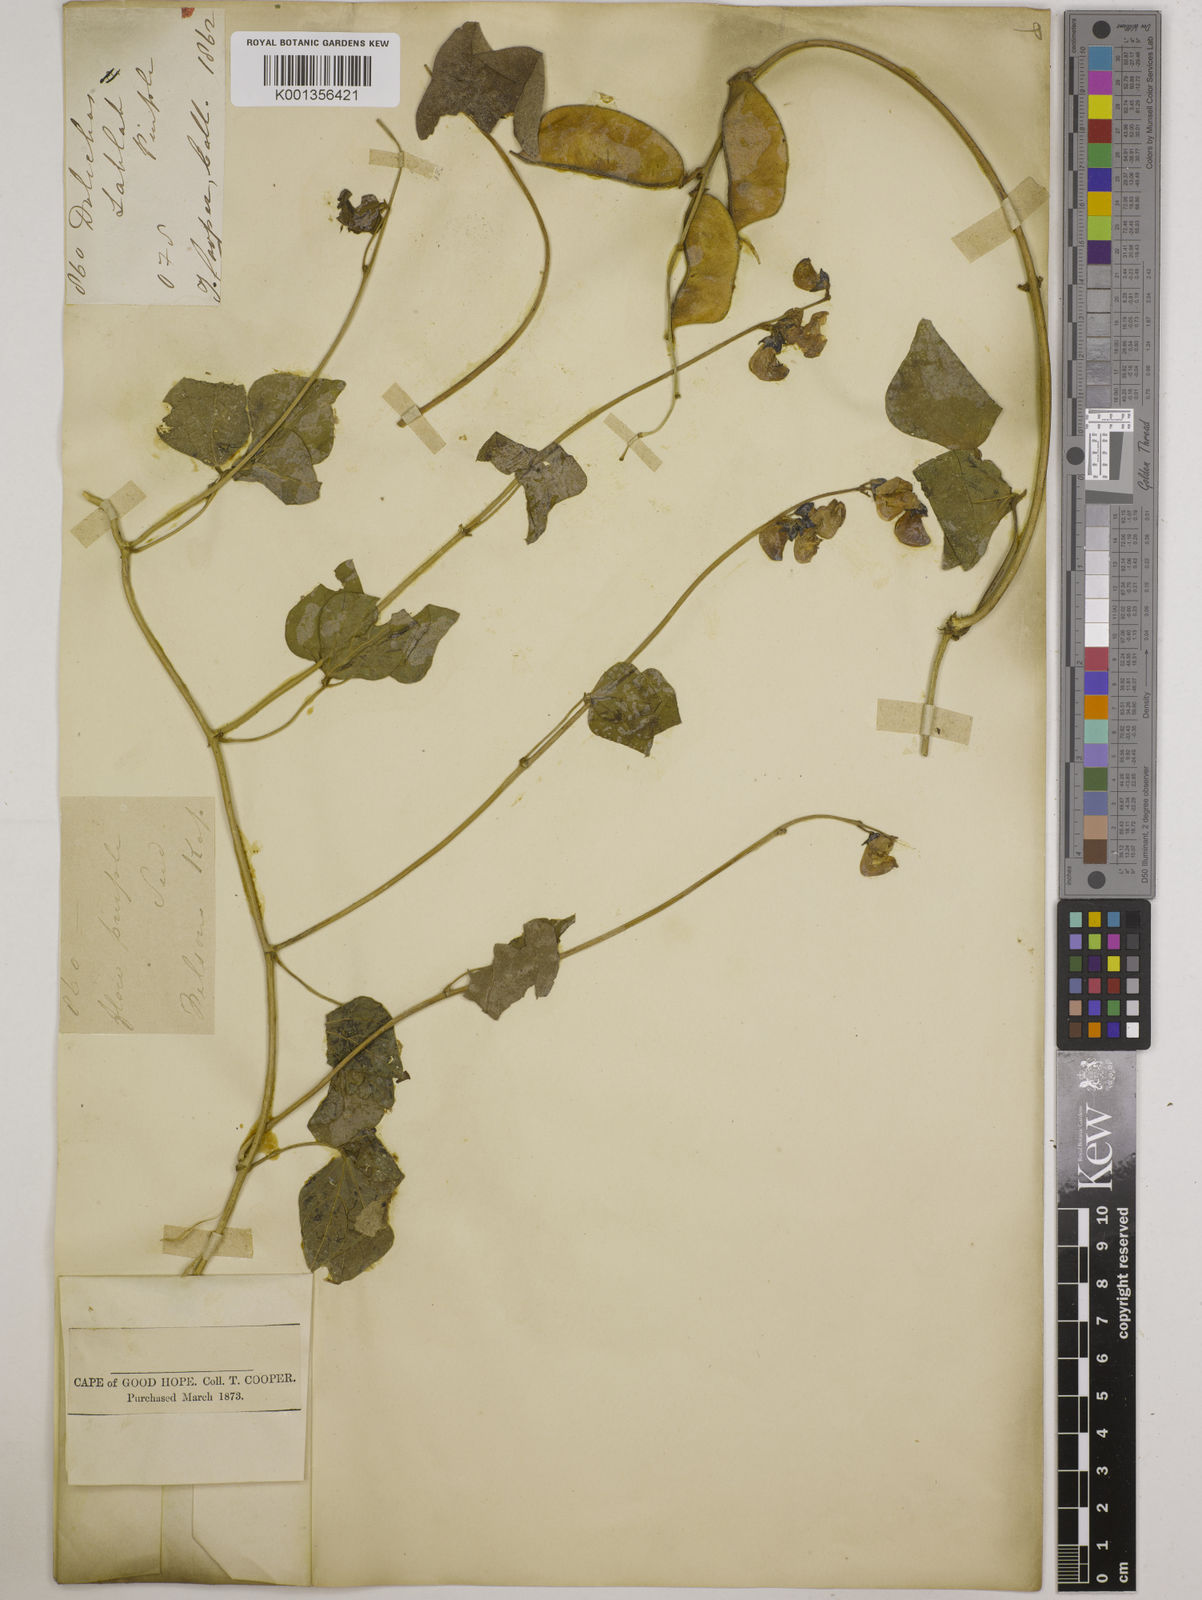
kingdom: Plantae
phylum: Tracheophyta
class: Magnoliopsida
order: Fabales
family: Fabaceae
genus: Lablab
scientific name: Lablab purpureus
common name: Lablab-bean
